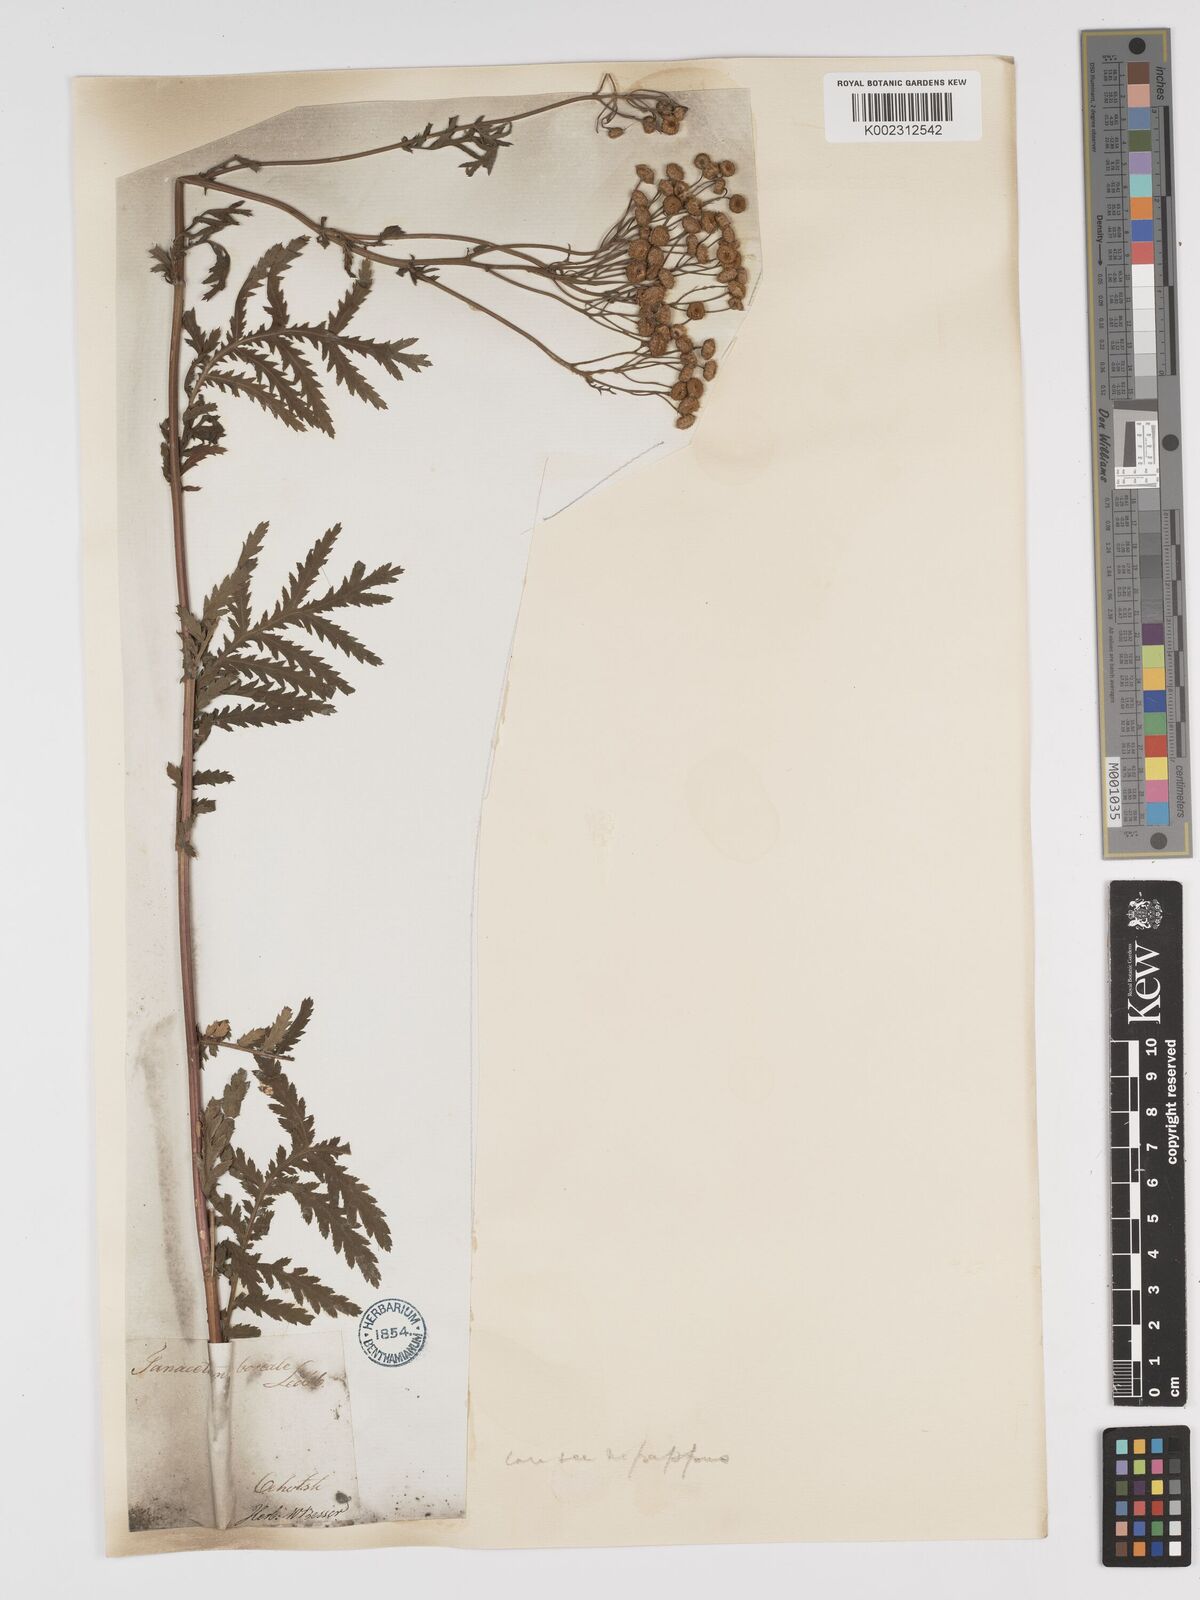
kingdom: Plantae
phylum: Tracheophyta
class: Magnoliopsida
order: Asterales
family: Asteraceae
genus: Tanacetum
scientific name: Tanacetum vulgare
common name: Common tansy
